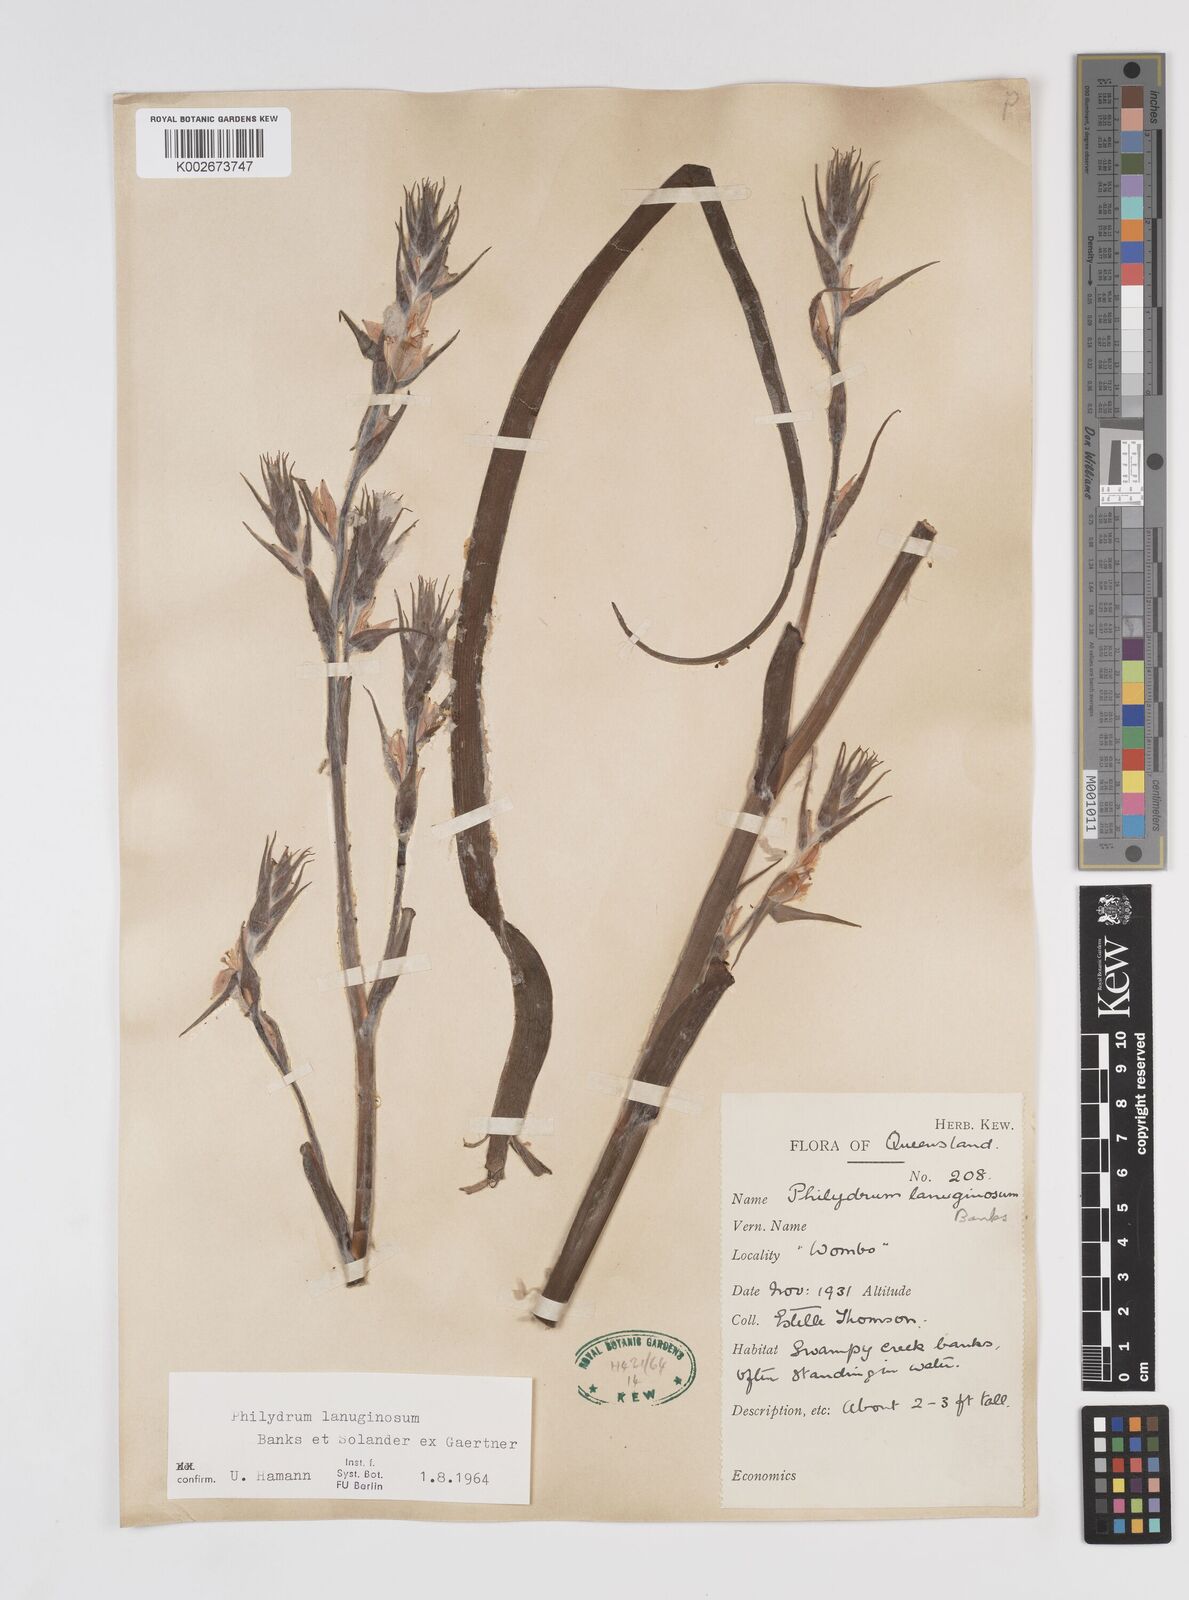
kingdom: Plantae
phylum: Tracheophyta
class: Liliopsida
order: Commelinales
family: Philydraceae
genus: Philydrum
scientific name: Philydrum lanuginosum
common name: Woolly frog's mouth
